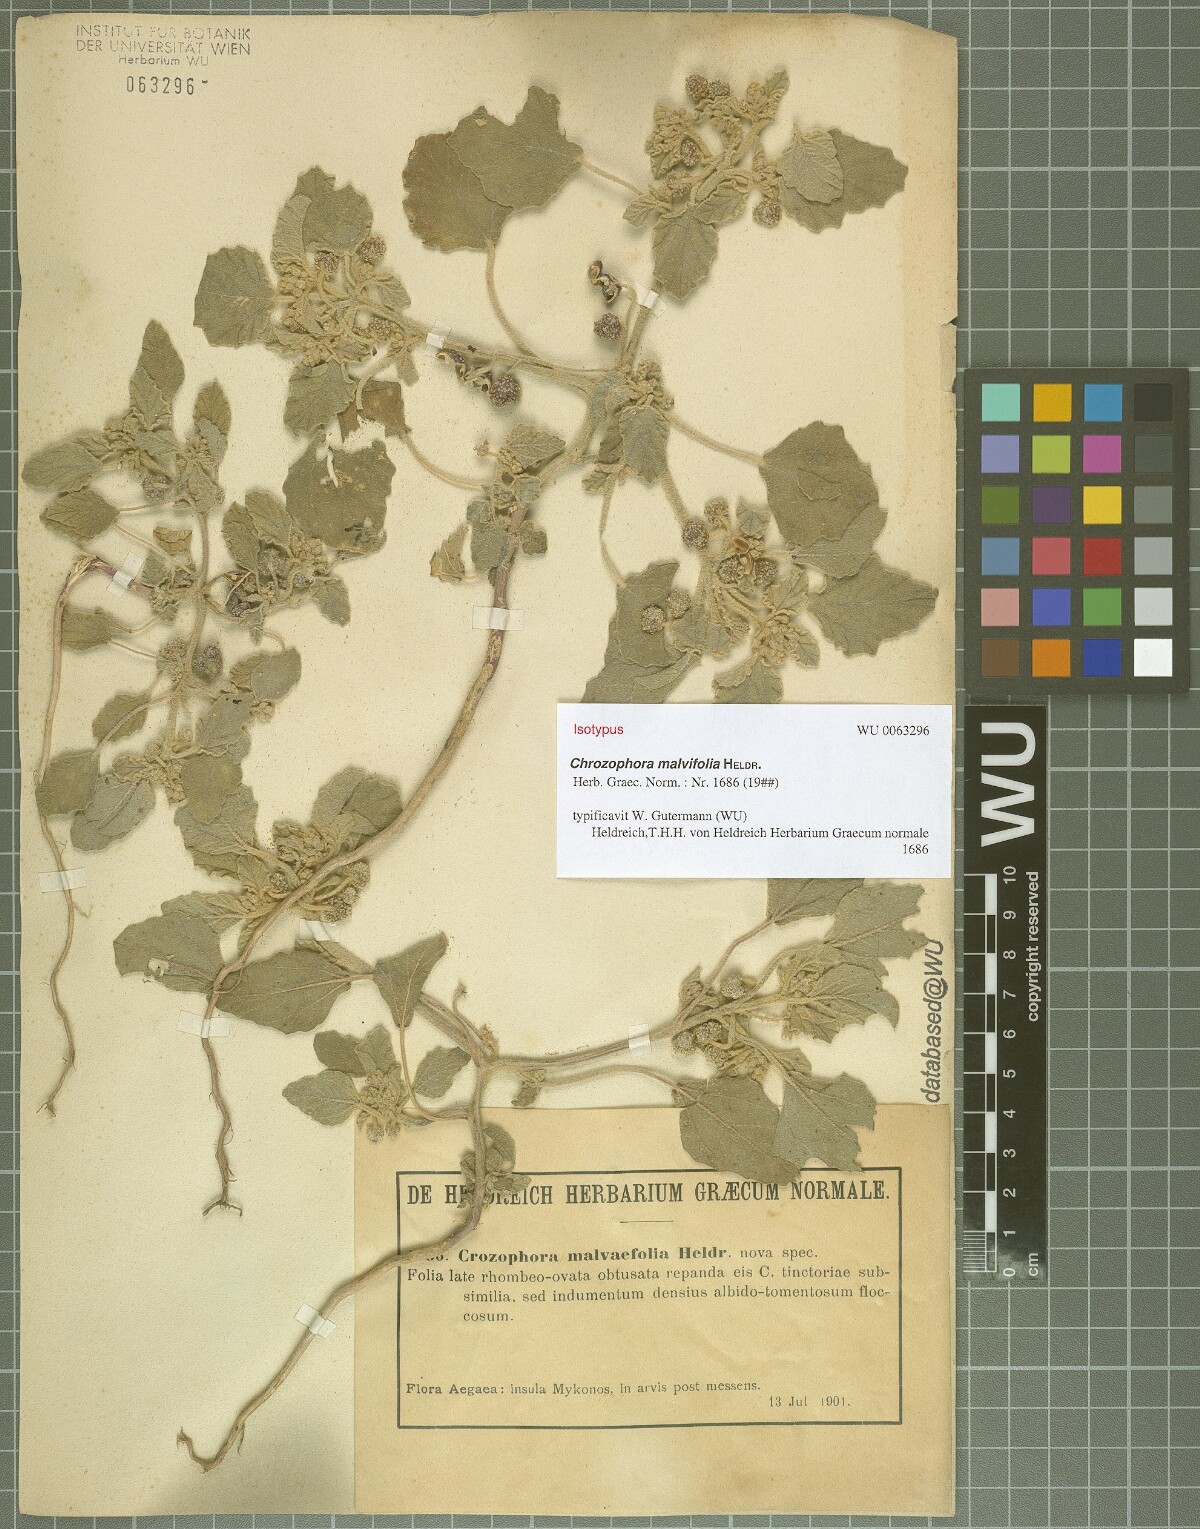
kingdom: Plantae
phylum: Tracheophyta
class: Magnoliopsida
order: Malpighiales
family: Euphorbiaceae
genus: Chrozophora
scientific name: Chrozophora
